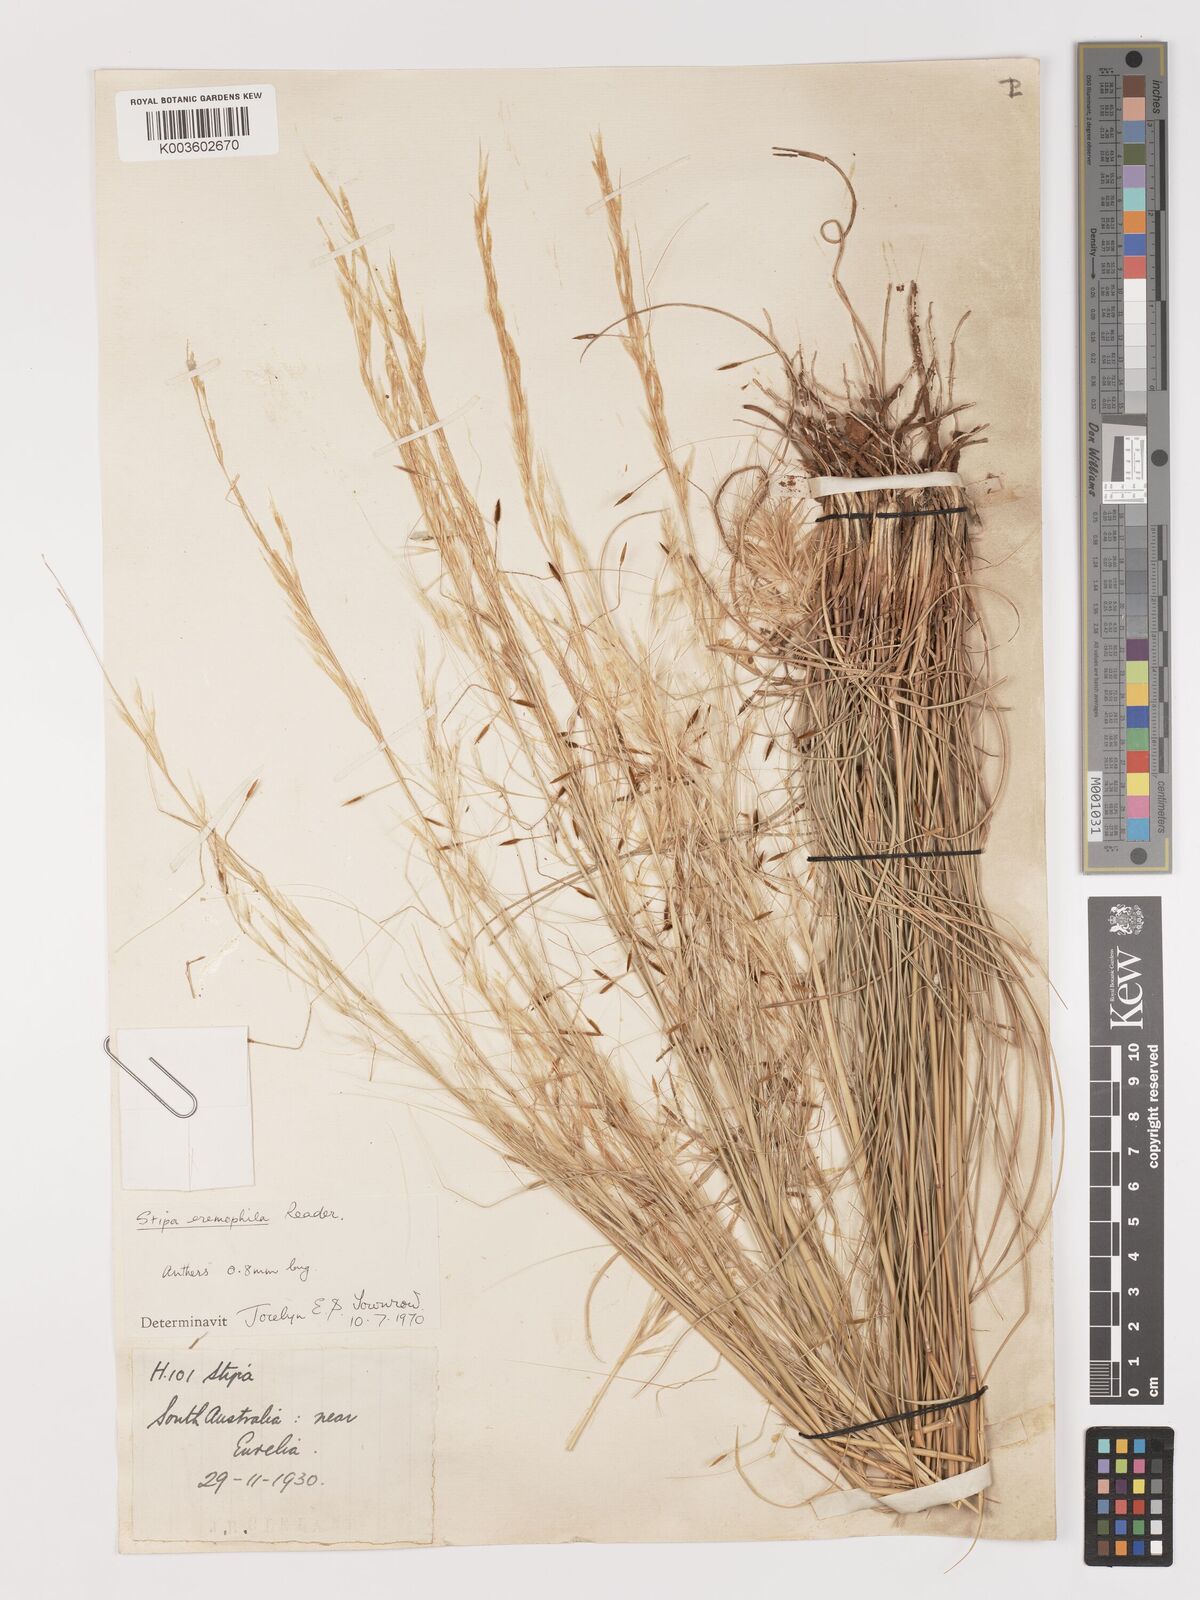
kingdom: Plantae
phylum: Tracheophyta
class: Liliopsida
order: Poales
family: Poaceae
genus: Austrostipa
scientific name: Austrostipa eremophila
